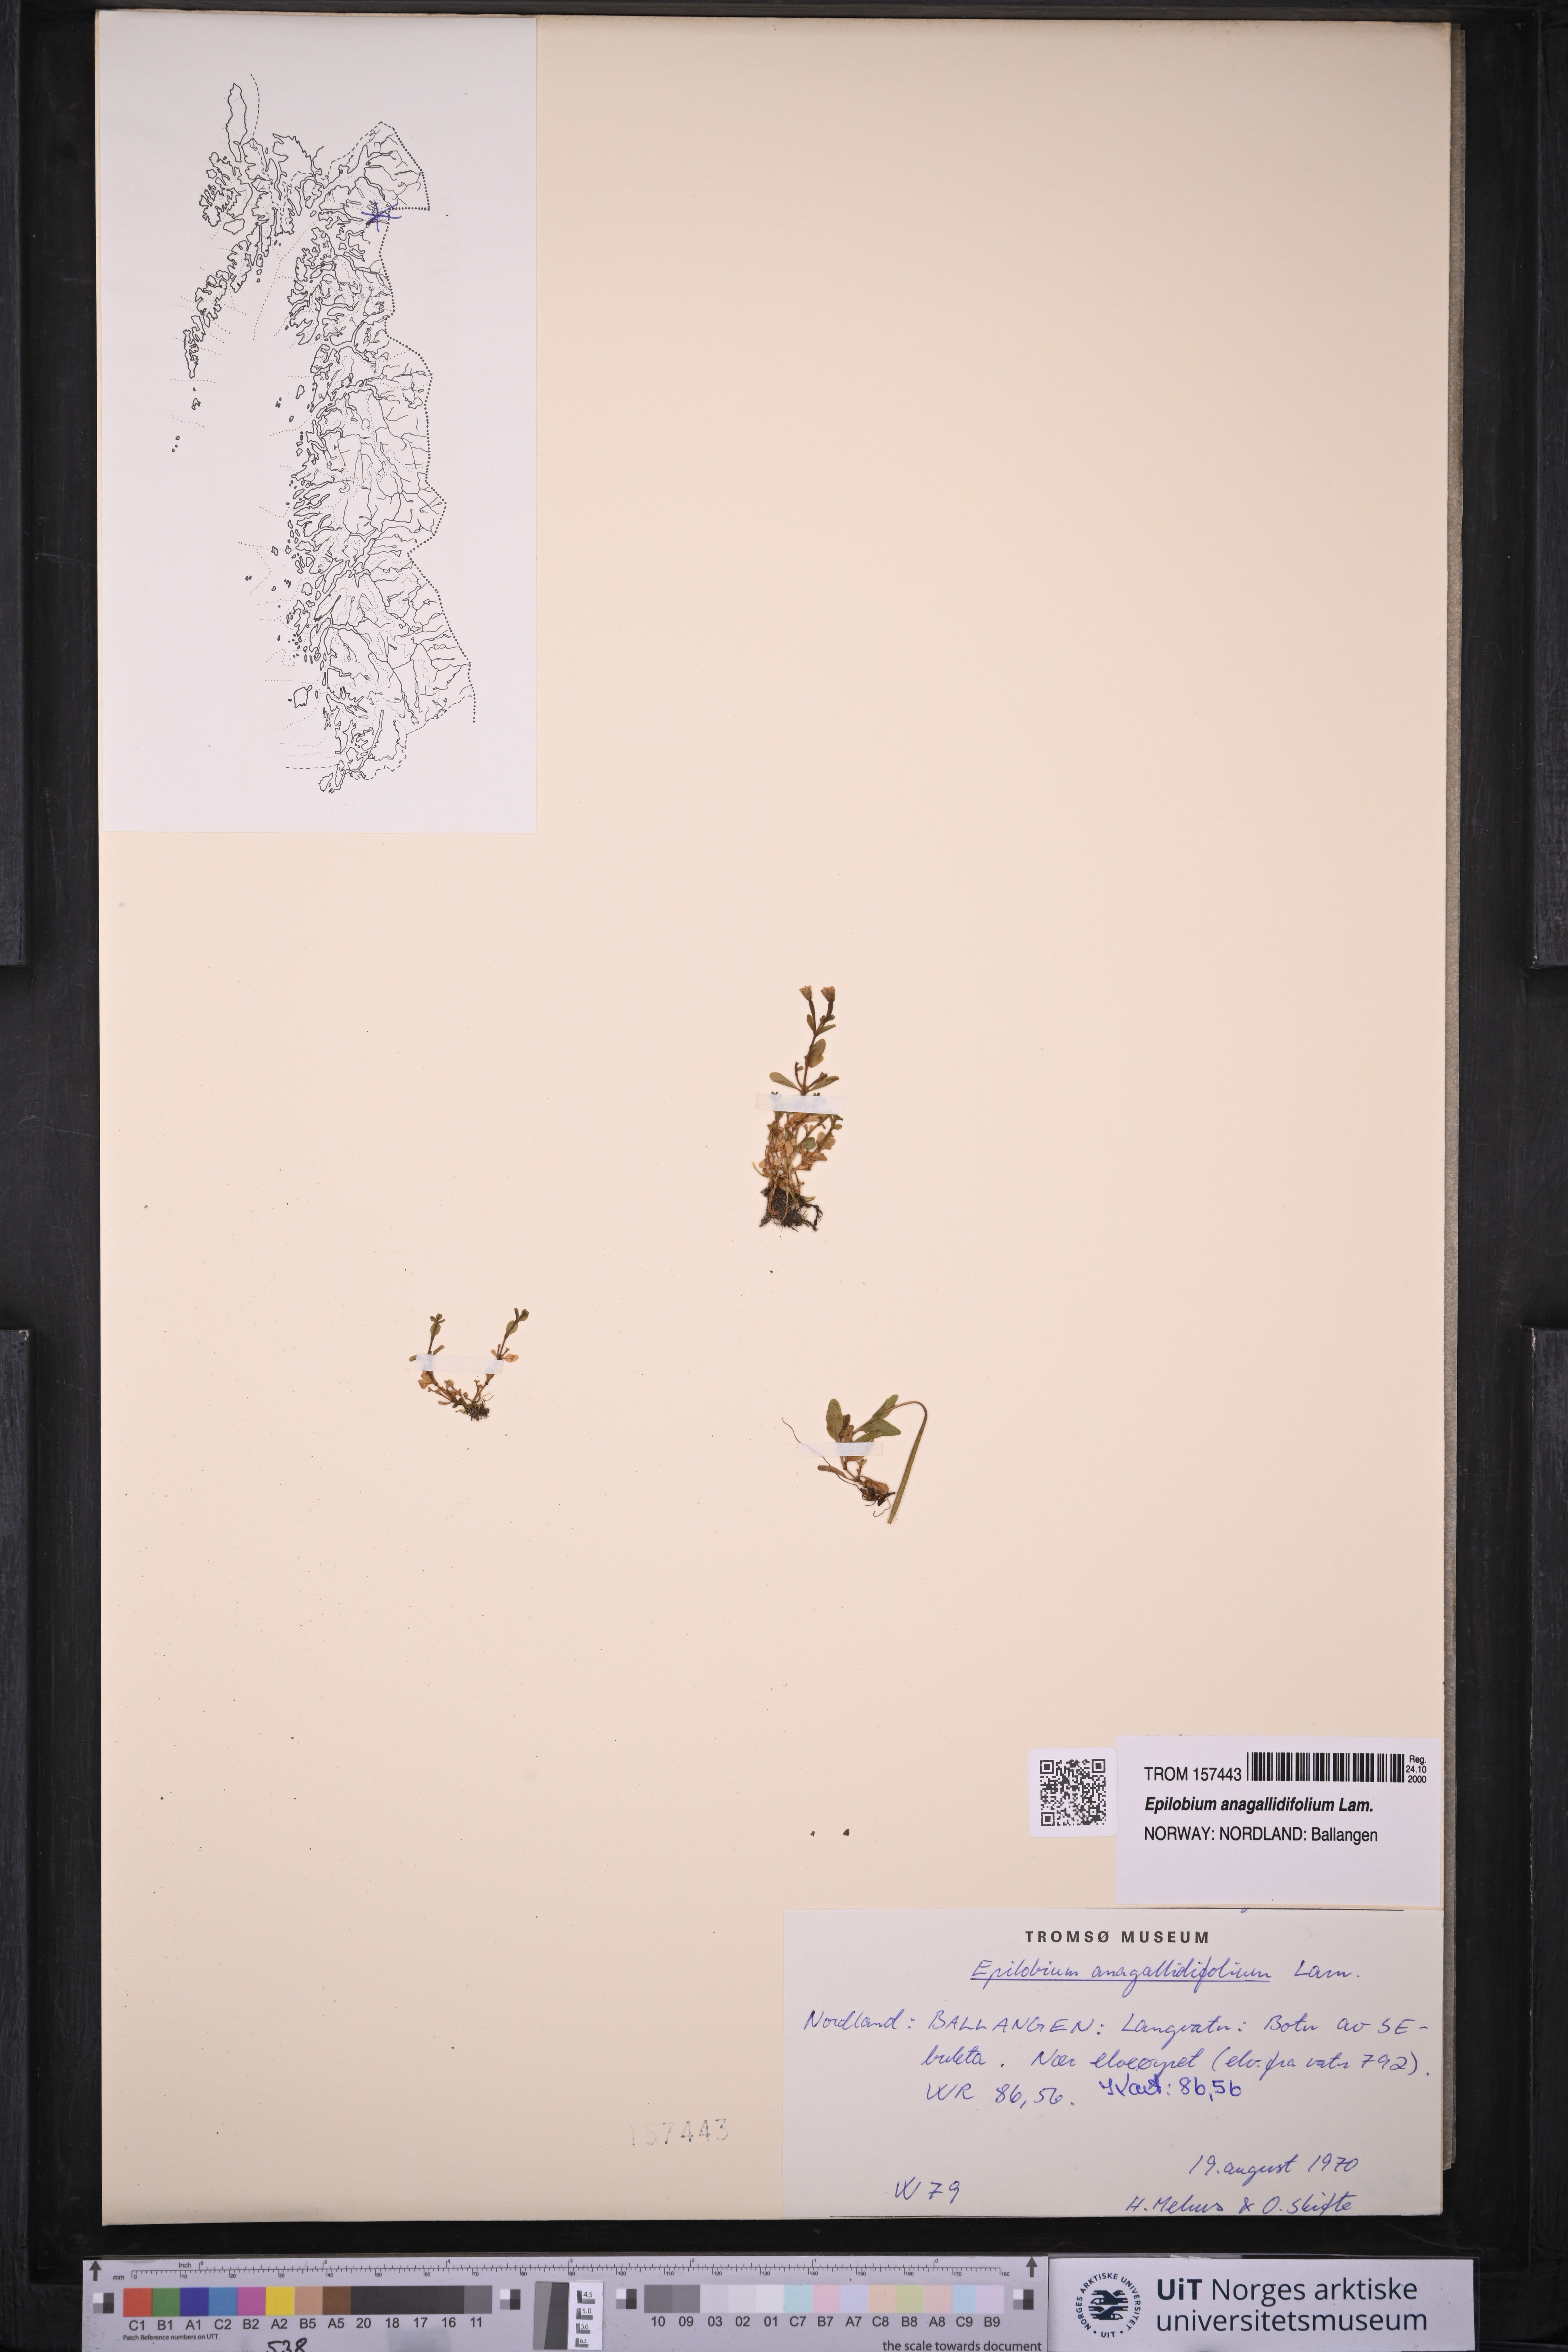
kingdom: Plantae
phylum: Tracheophyta
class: Magnoliopsida
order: Myrtales
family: Onagraceae
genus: Epilobium
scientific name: Epilobium anagallidifolium
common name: Alpine willowherb
